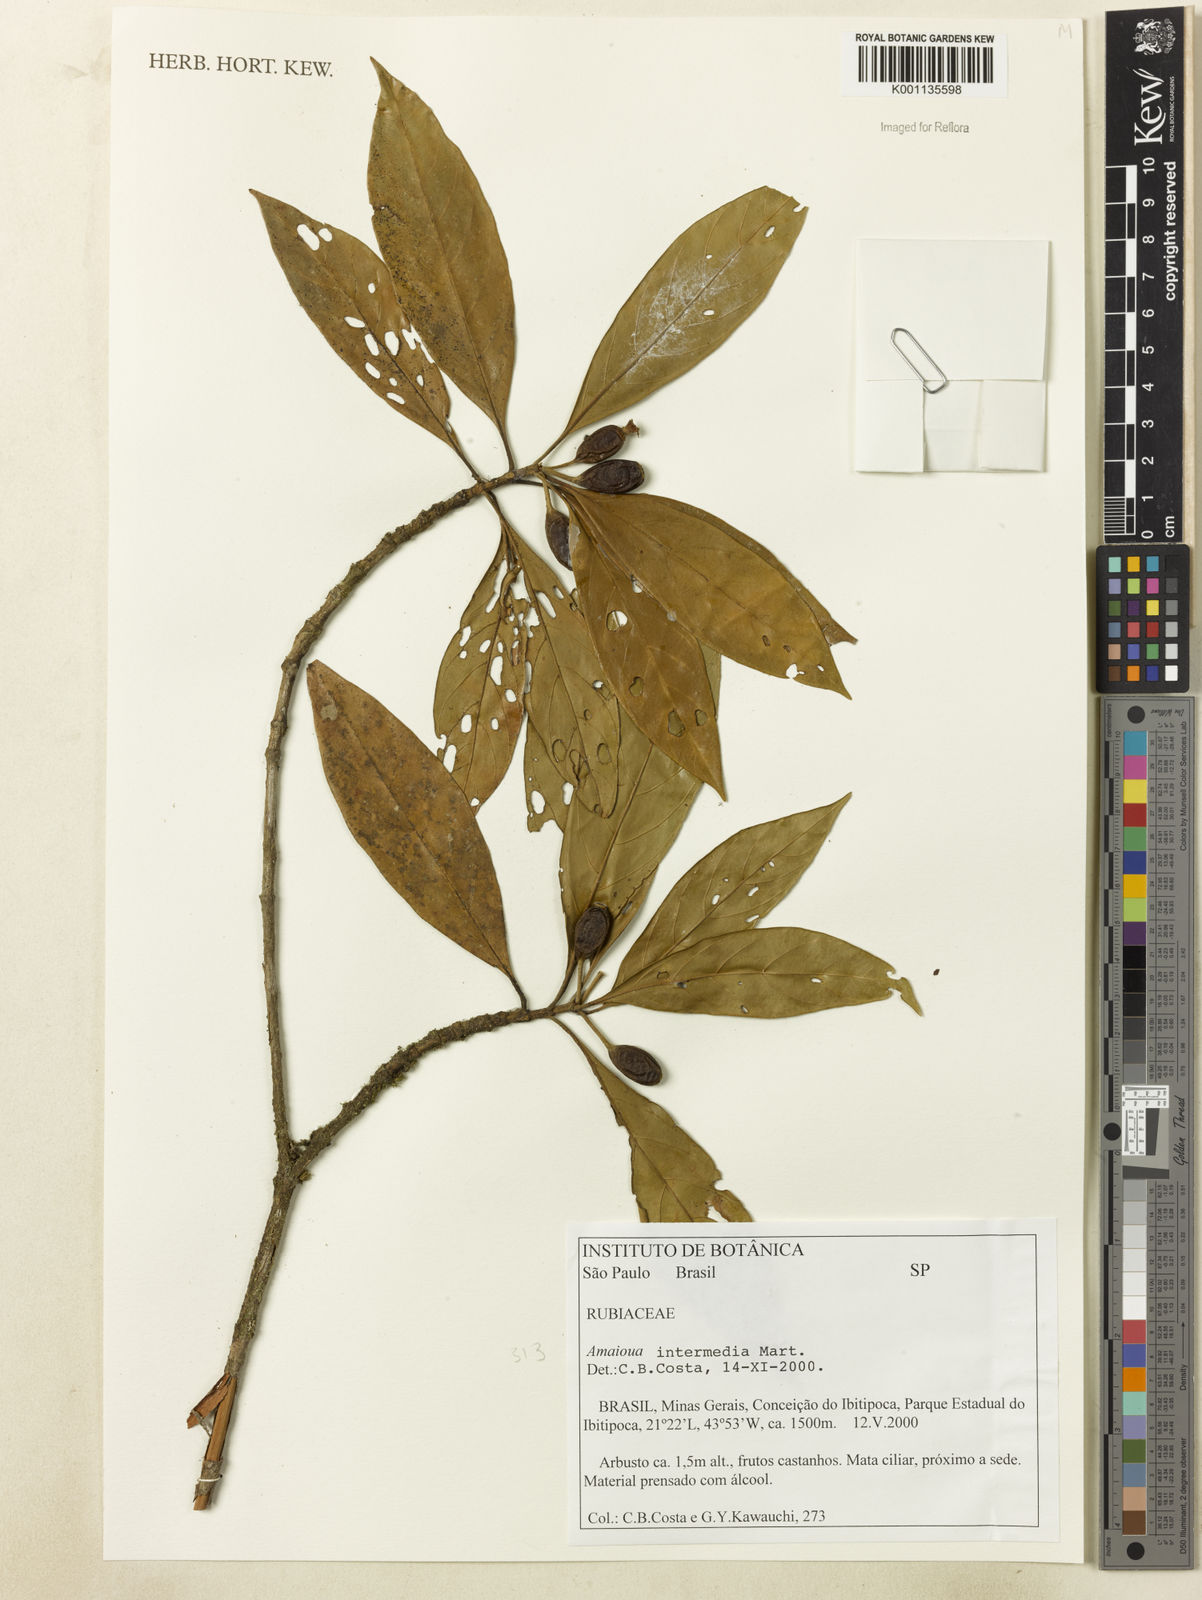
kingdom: Plantae
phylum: Tracheophyta
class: Magnoliopsida
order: Gentianales
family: Rubiaceae
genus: Amaioua
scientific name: Amaioua intermedia
